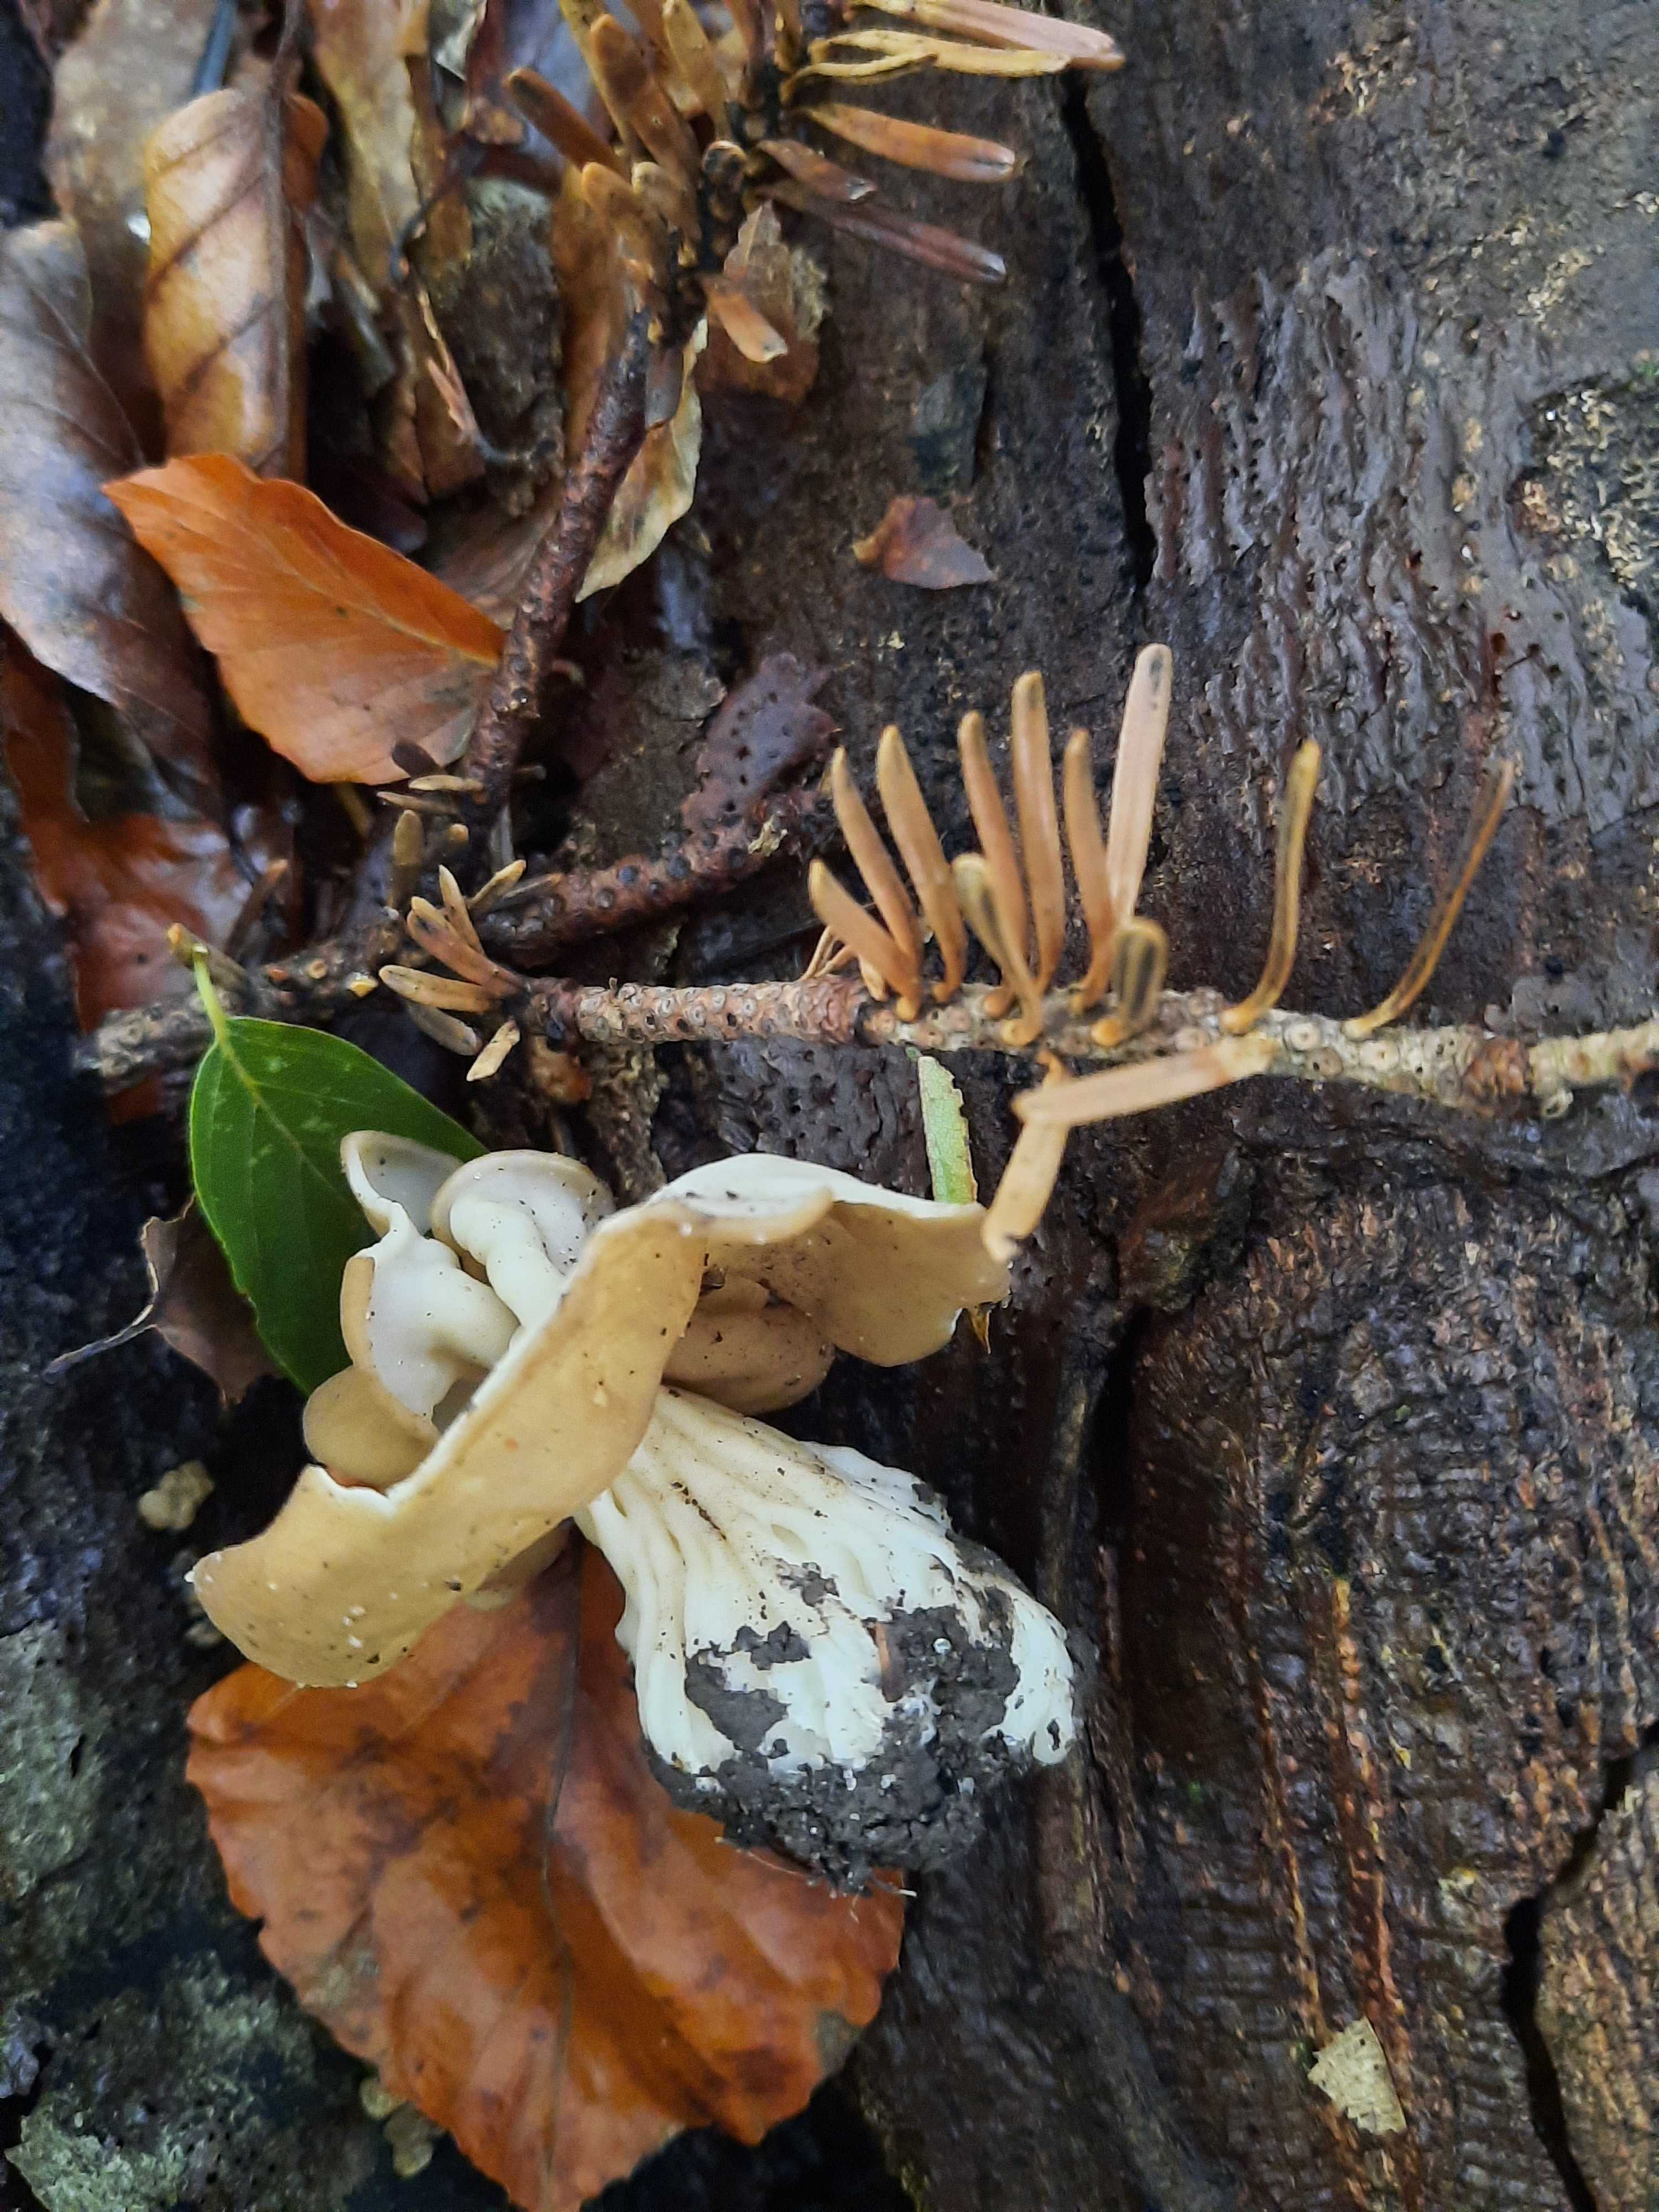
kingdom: Fungi
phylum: Ascomycota
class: Pezizomycetes
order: Pezizales
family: Helvellaceae
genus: Helvella
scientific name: Helvella crispa
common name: kruset foldhat
